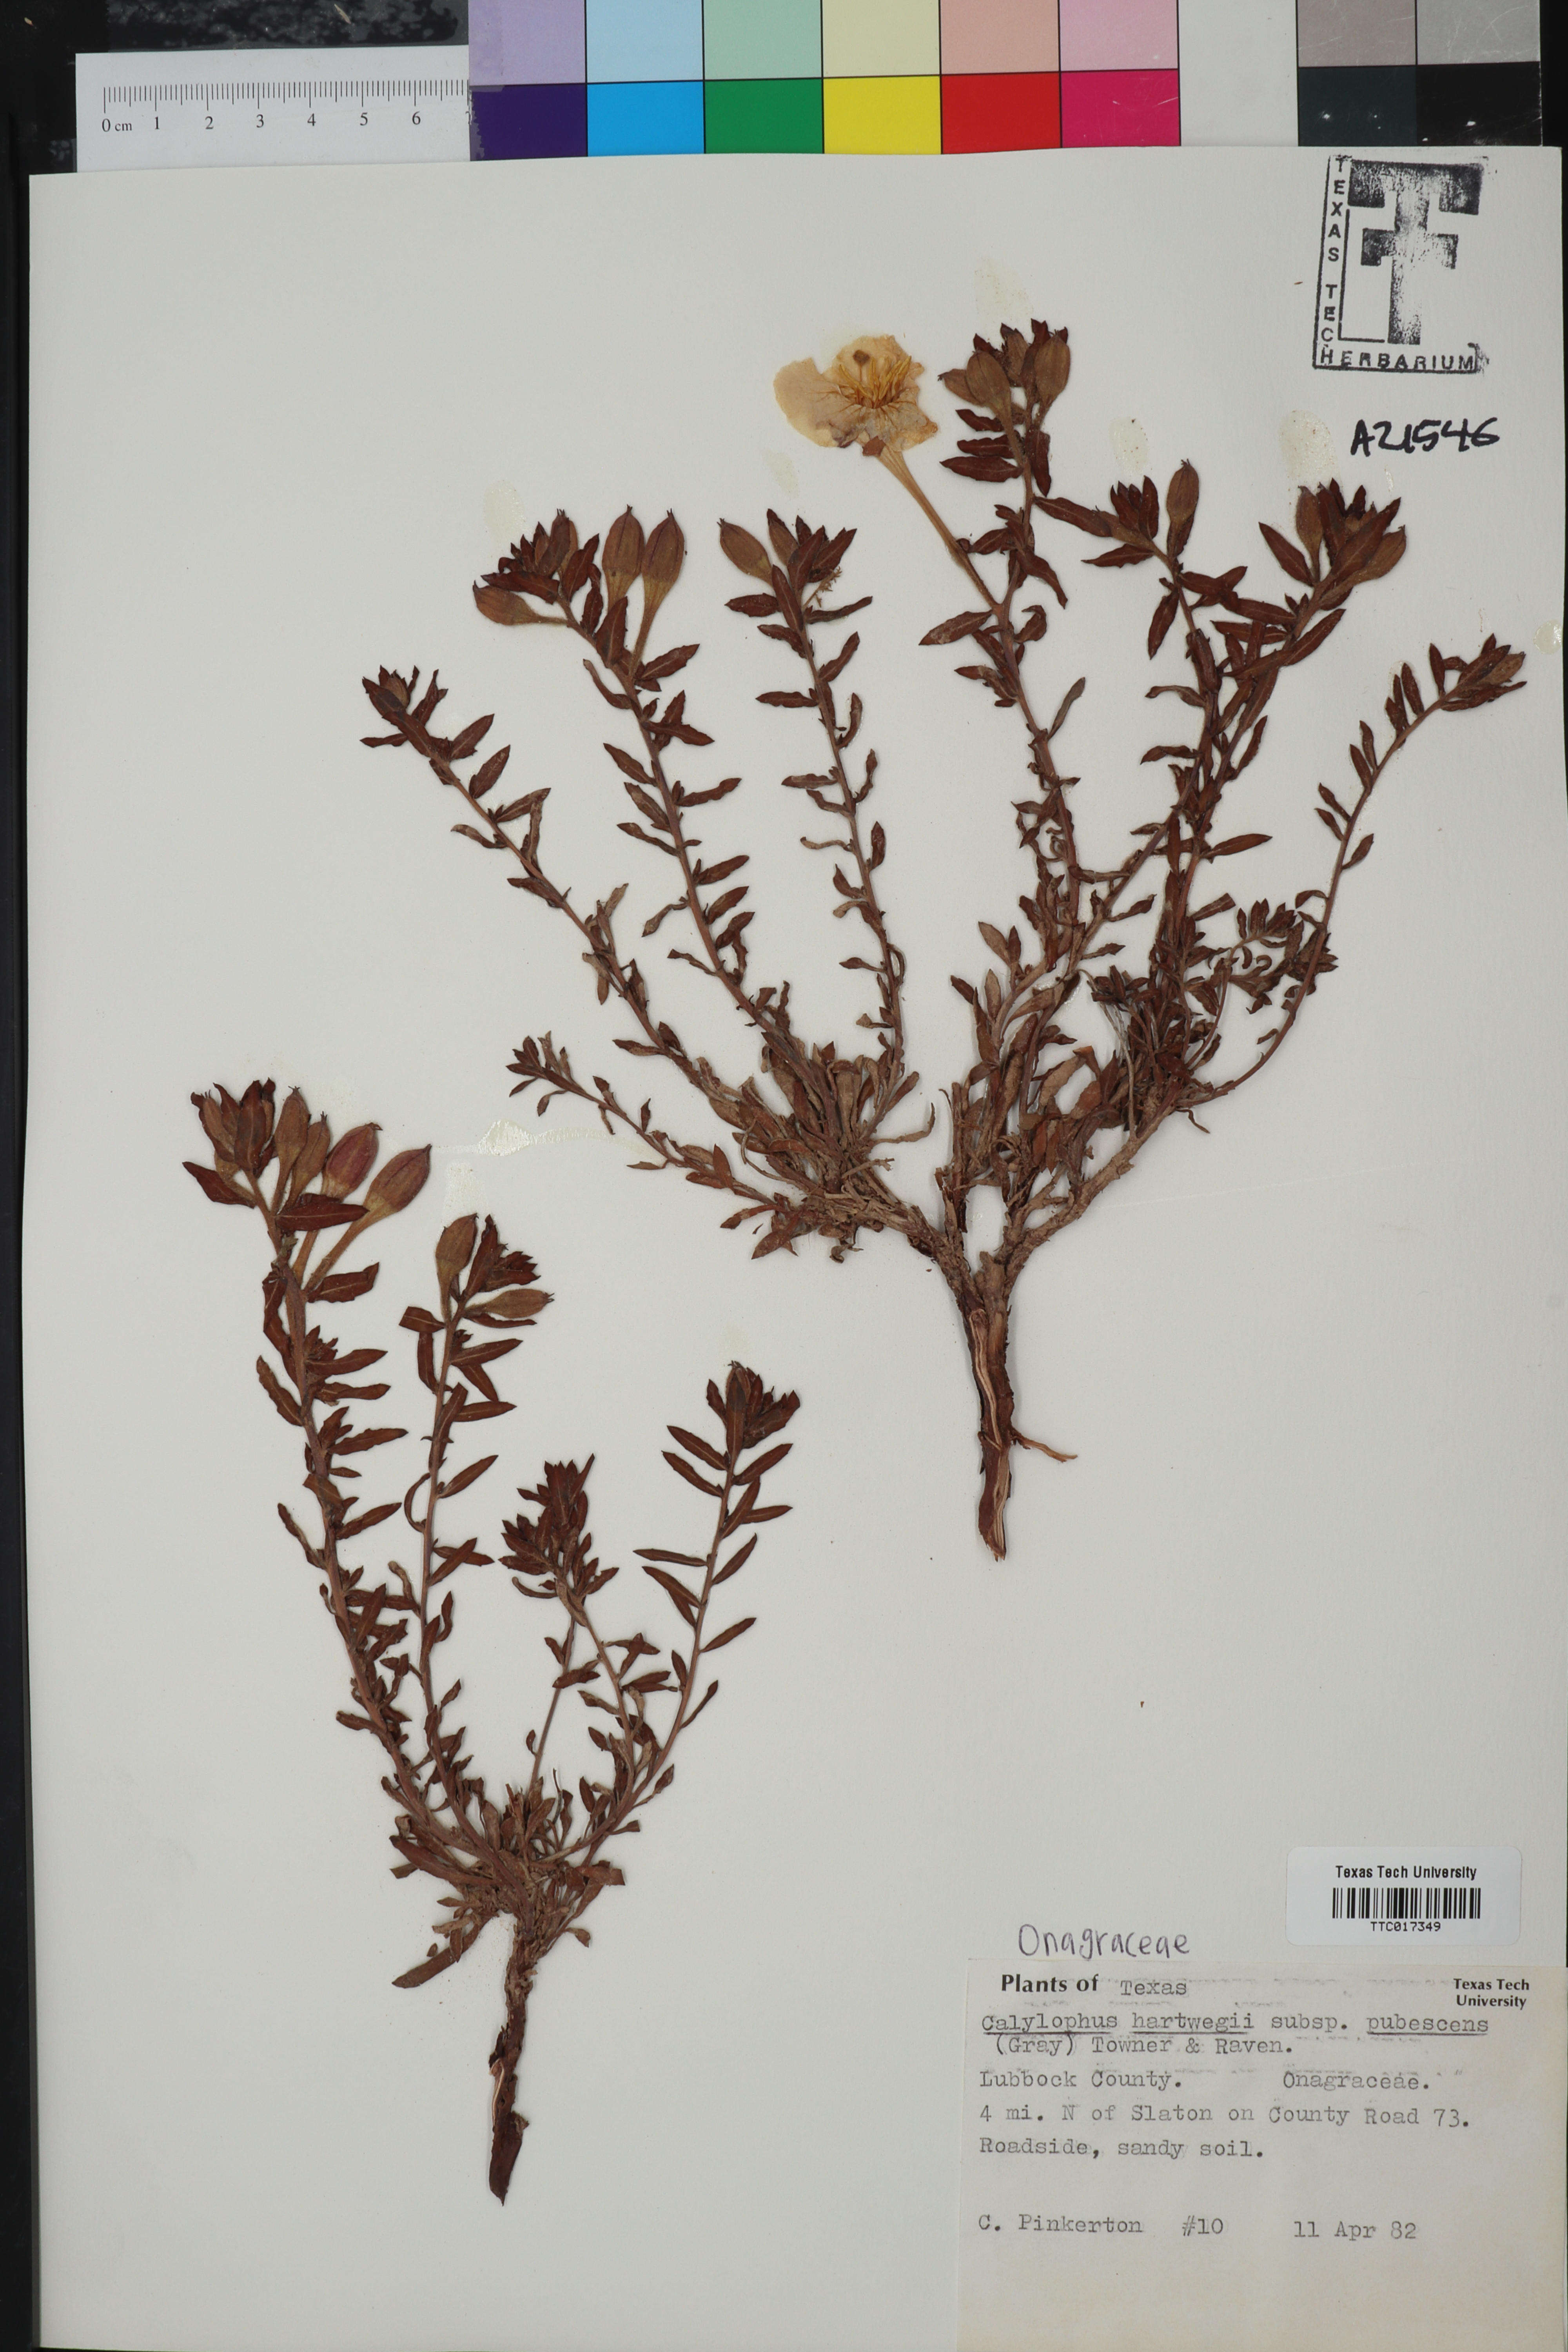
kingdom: Plantae
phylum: Tracheophyta
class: Magnoliopsida
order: Myrtales
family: Onagraceae
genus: Oenothera
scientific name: Oenothera hartwegii
